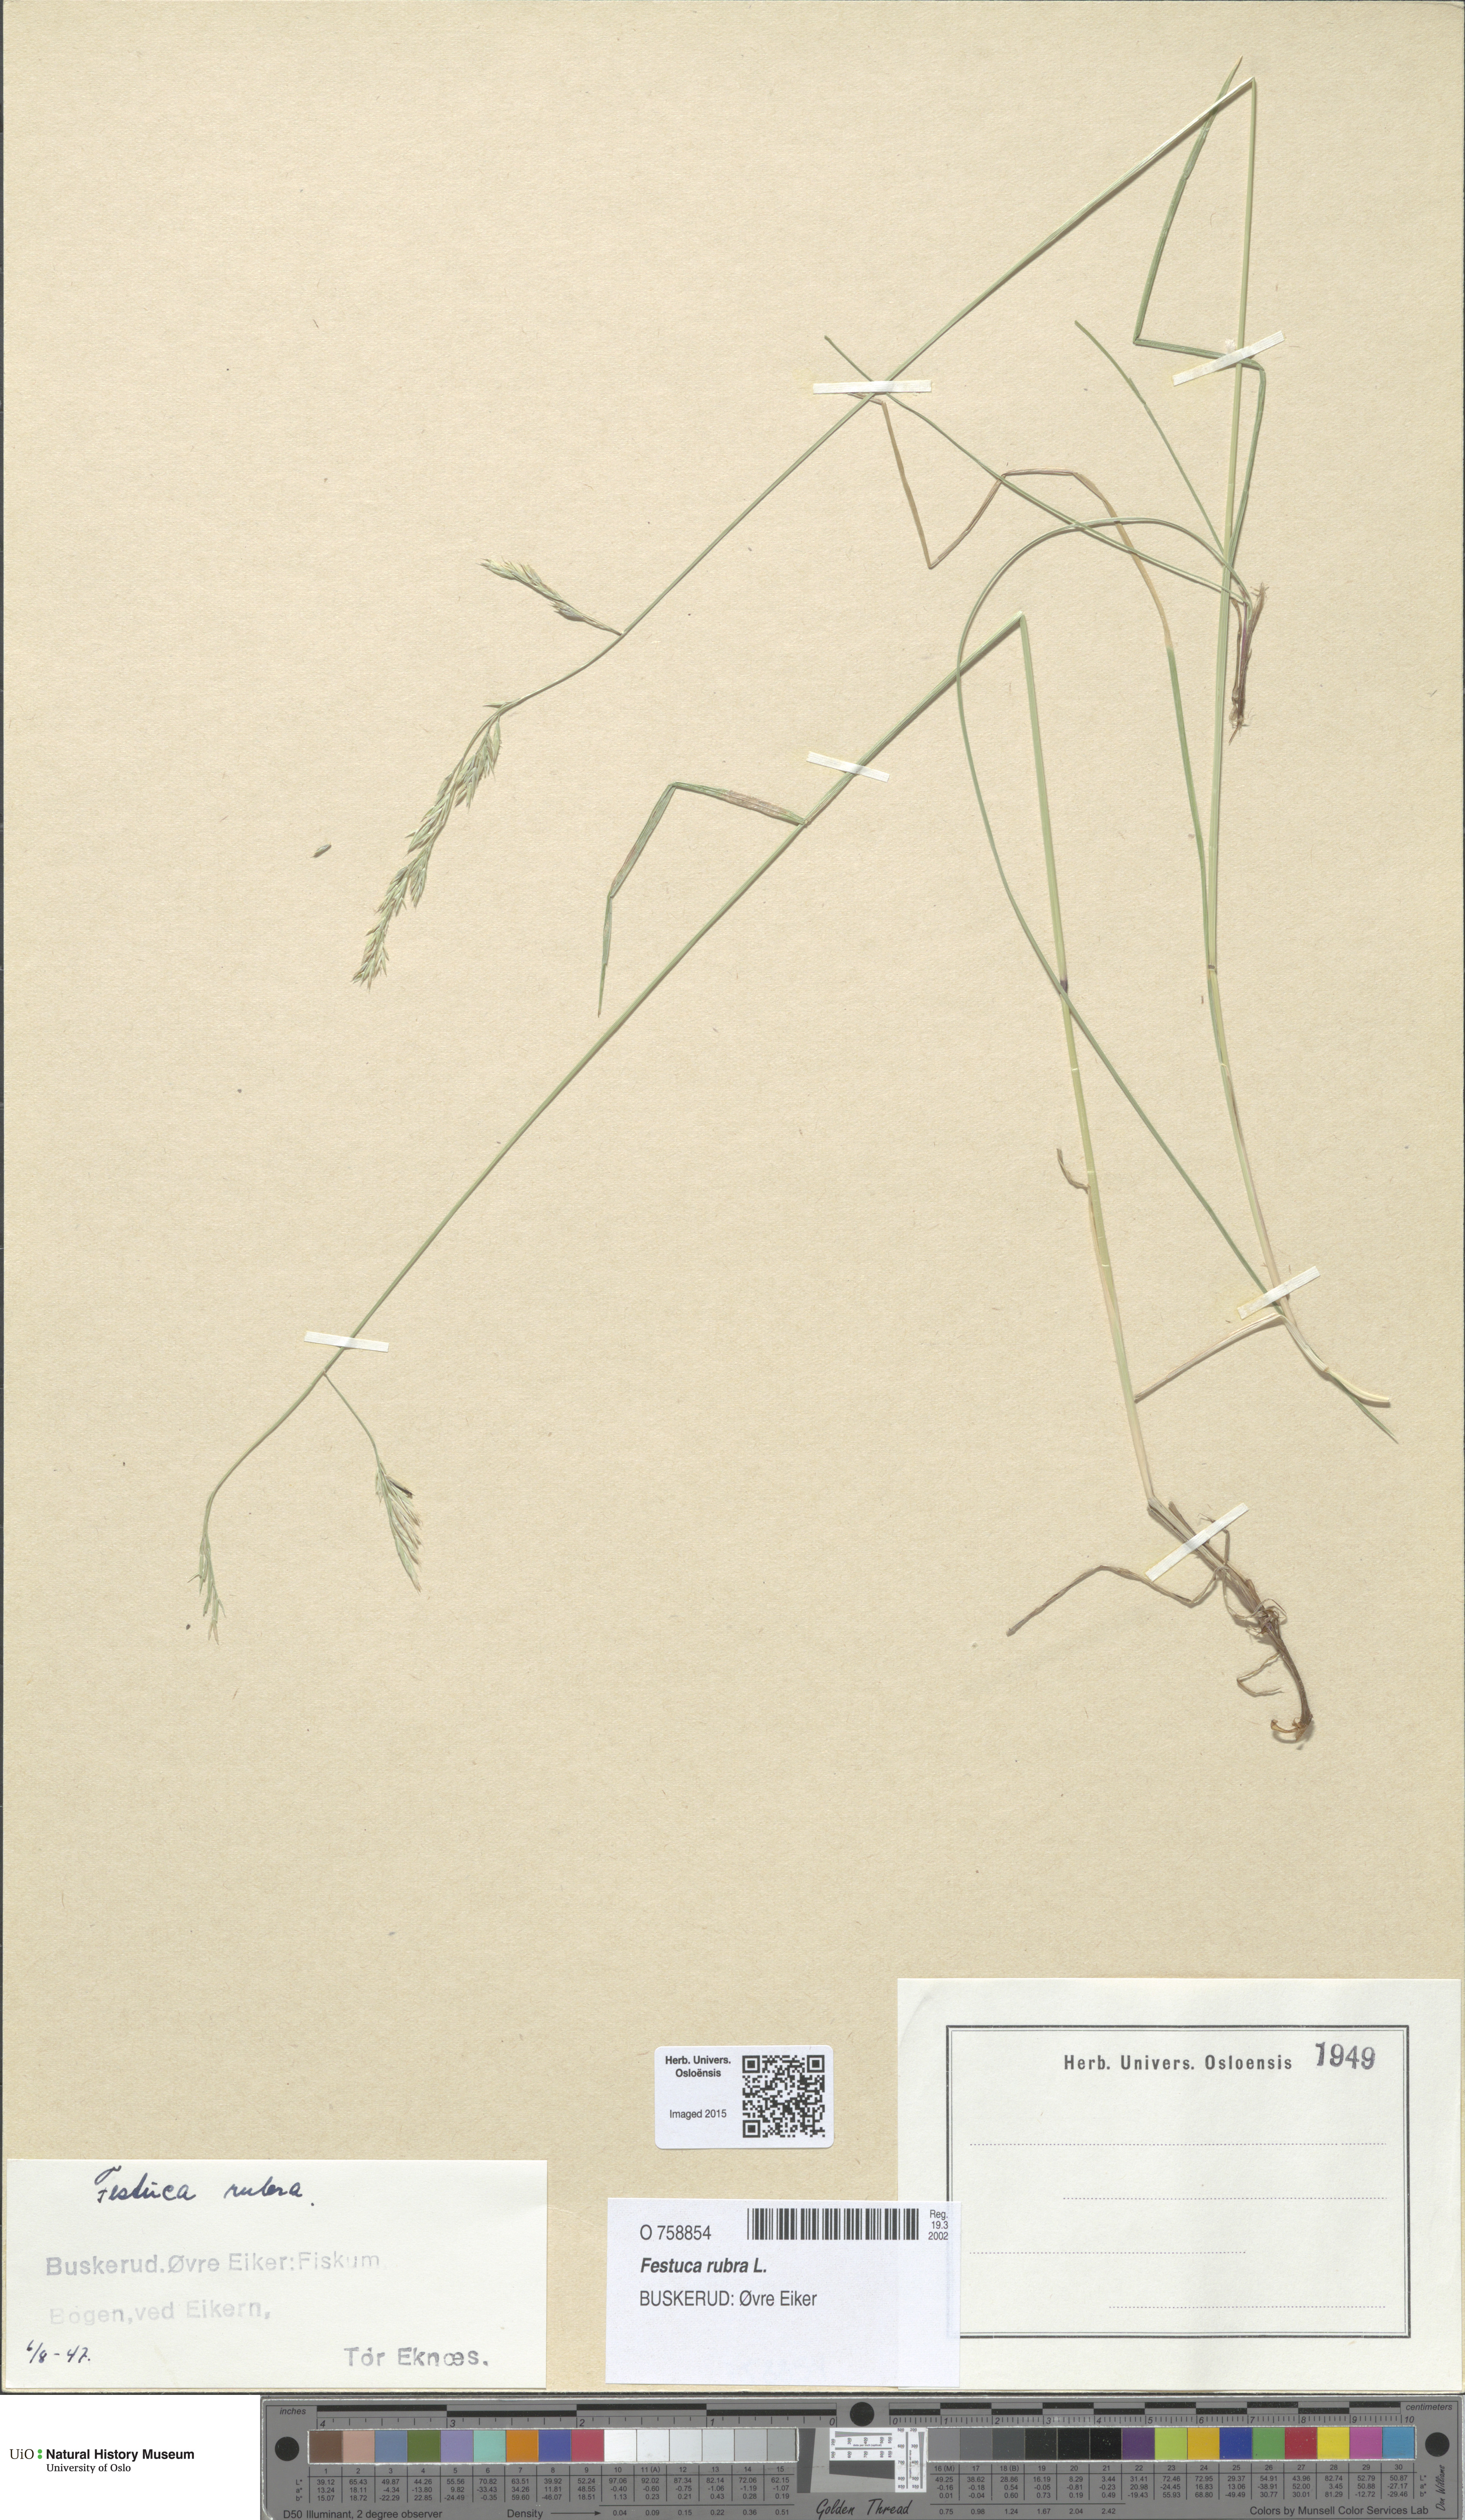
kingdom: Plantae
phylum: Tracheophyta
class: Liliopsida
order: Poales
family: Poaceae
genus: Festuca
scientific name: Festuca rubra
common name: Red fescue
